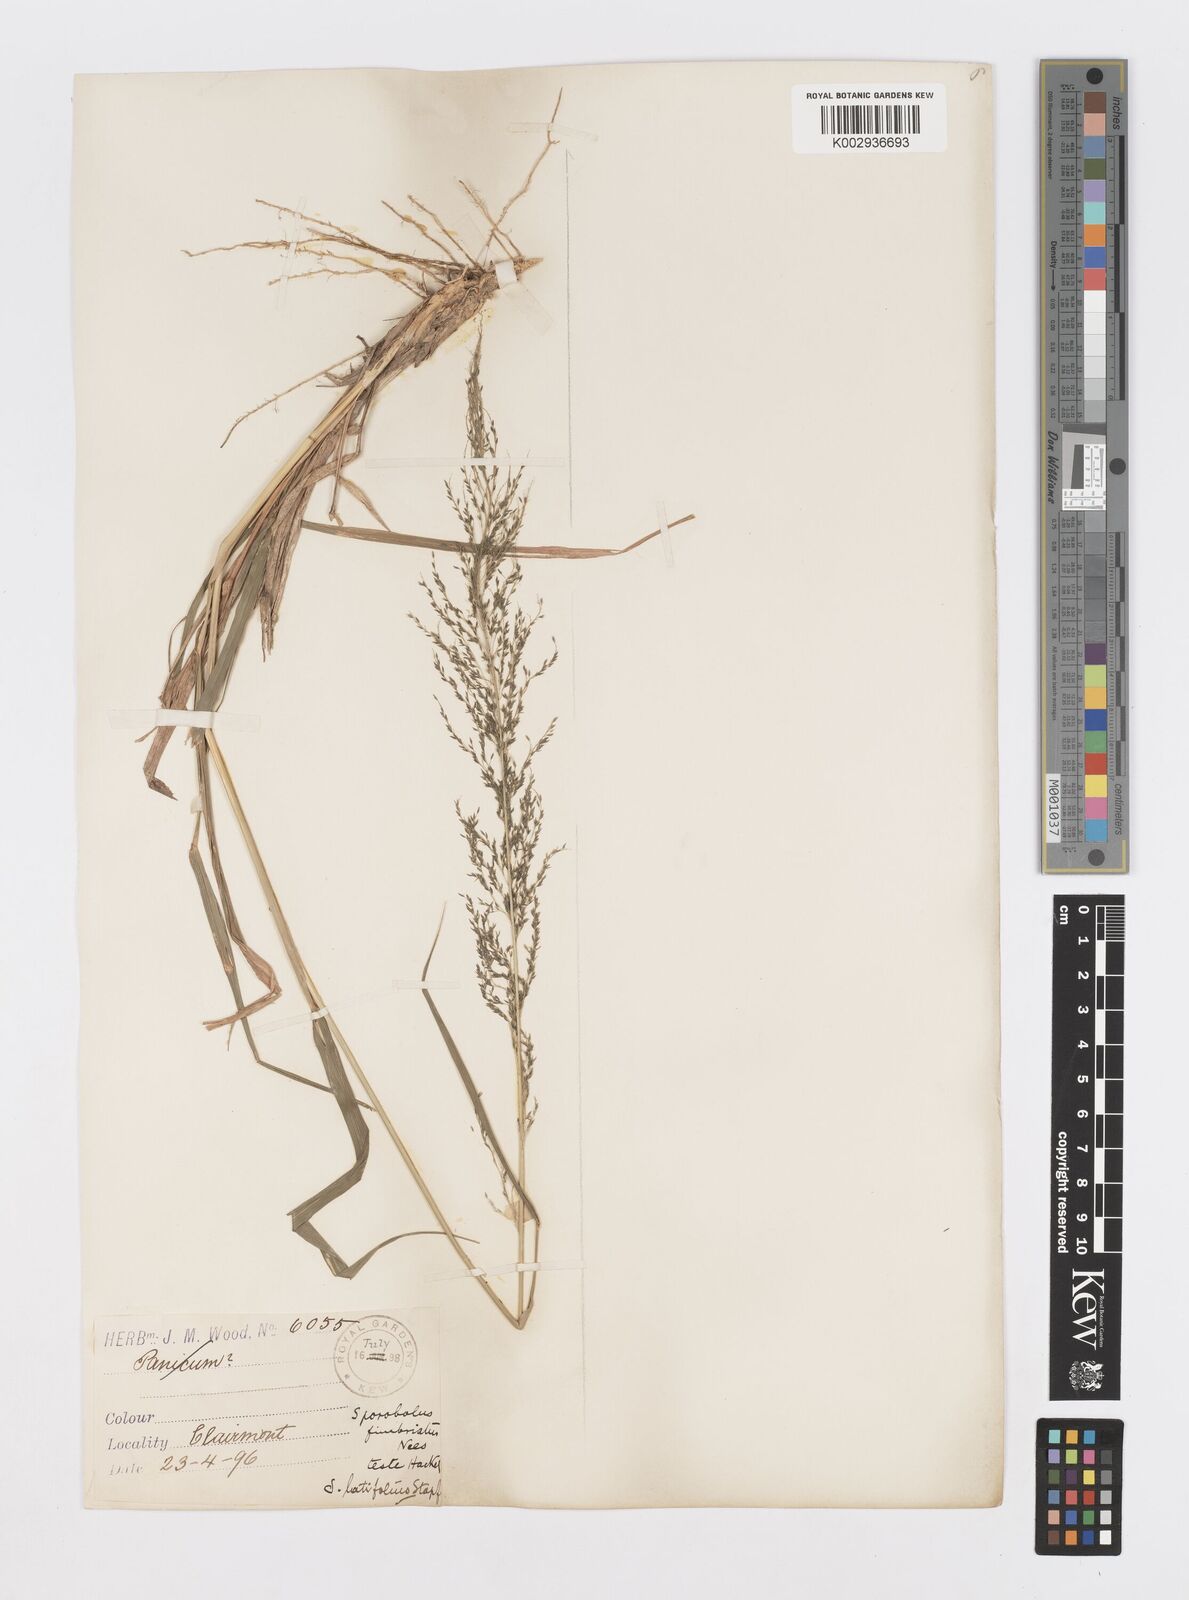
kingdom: Plantae
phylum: Tracheophyta
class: Liliopsida
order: Poales
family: Poaceae
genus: Sporobolus
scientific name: Sporobolus fimbriatus
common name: Fringed dropseed
